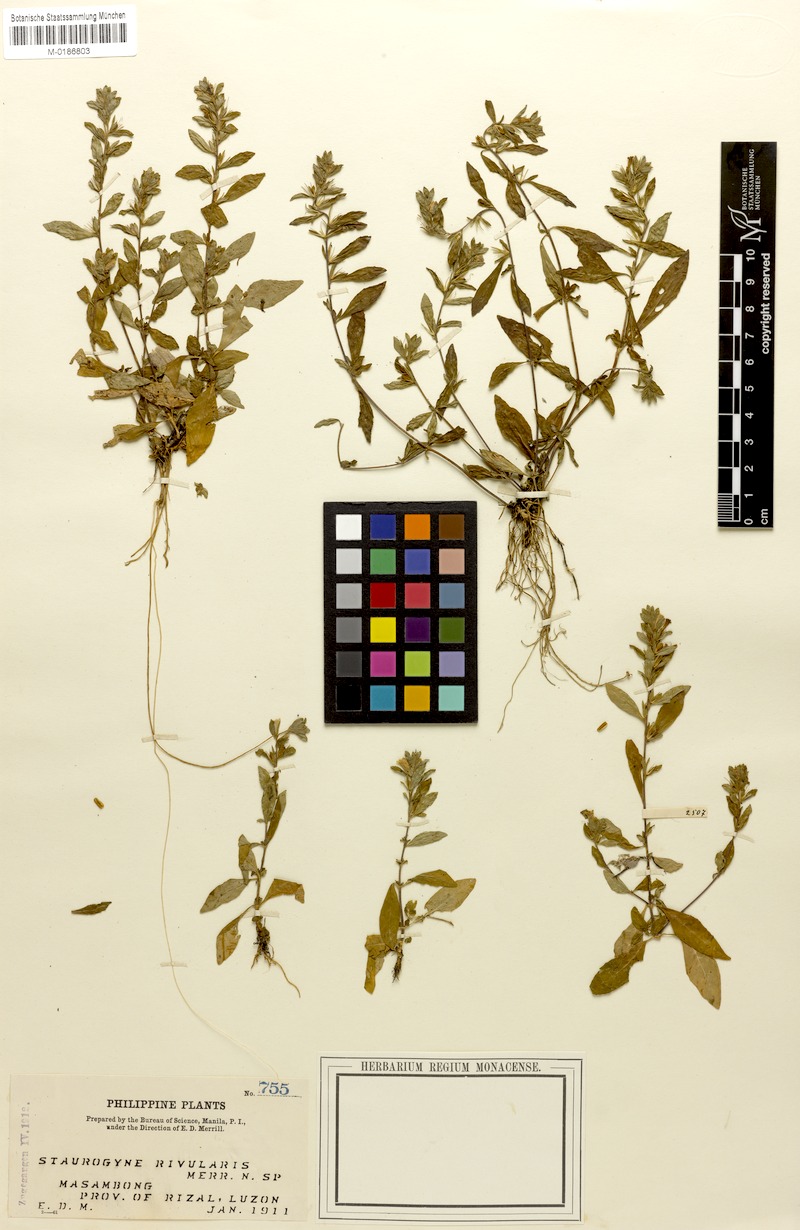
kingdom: Plantae
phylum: Tracheophyta
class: Magnoliopsida
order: Lamiales
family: Acanthaceae
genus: Staurogyne
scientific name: Staurogyne spathulata
